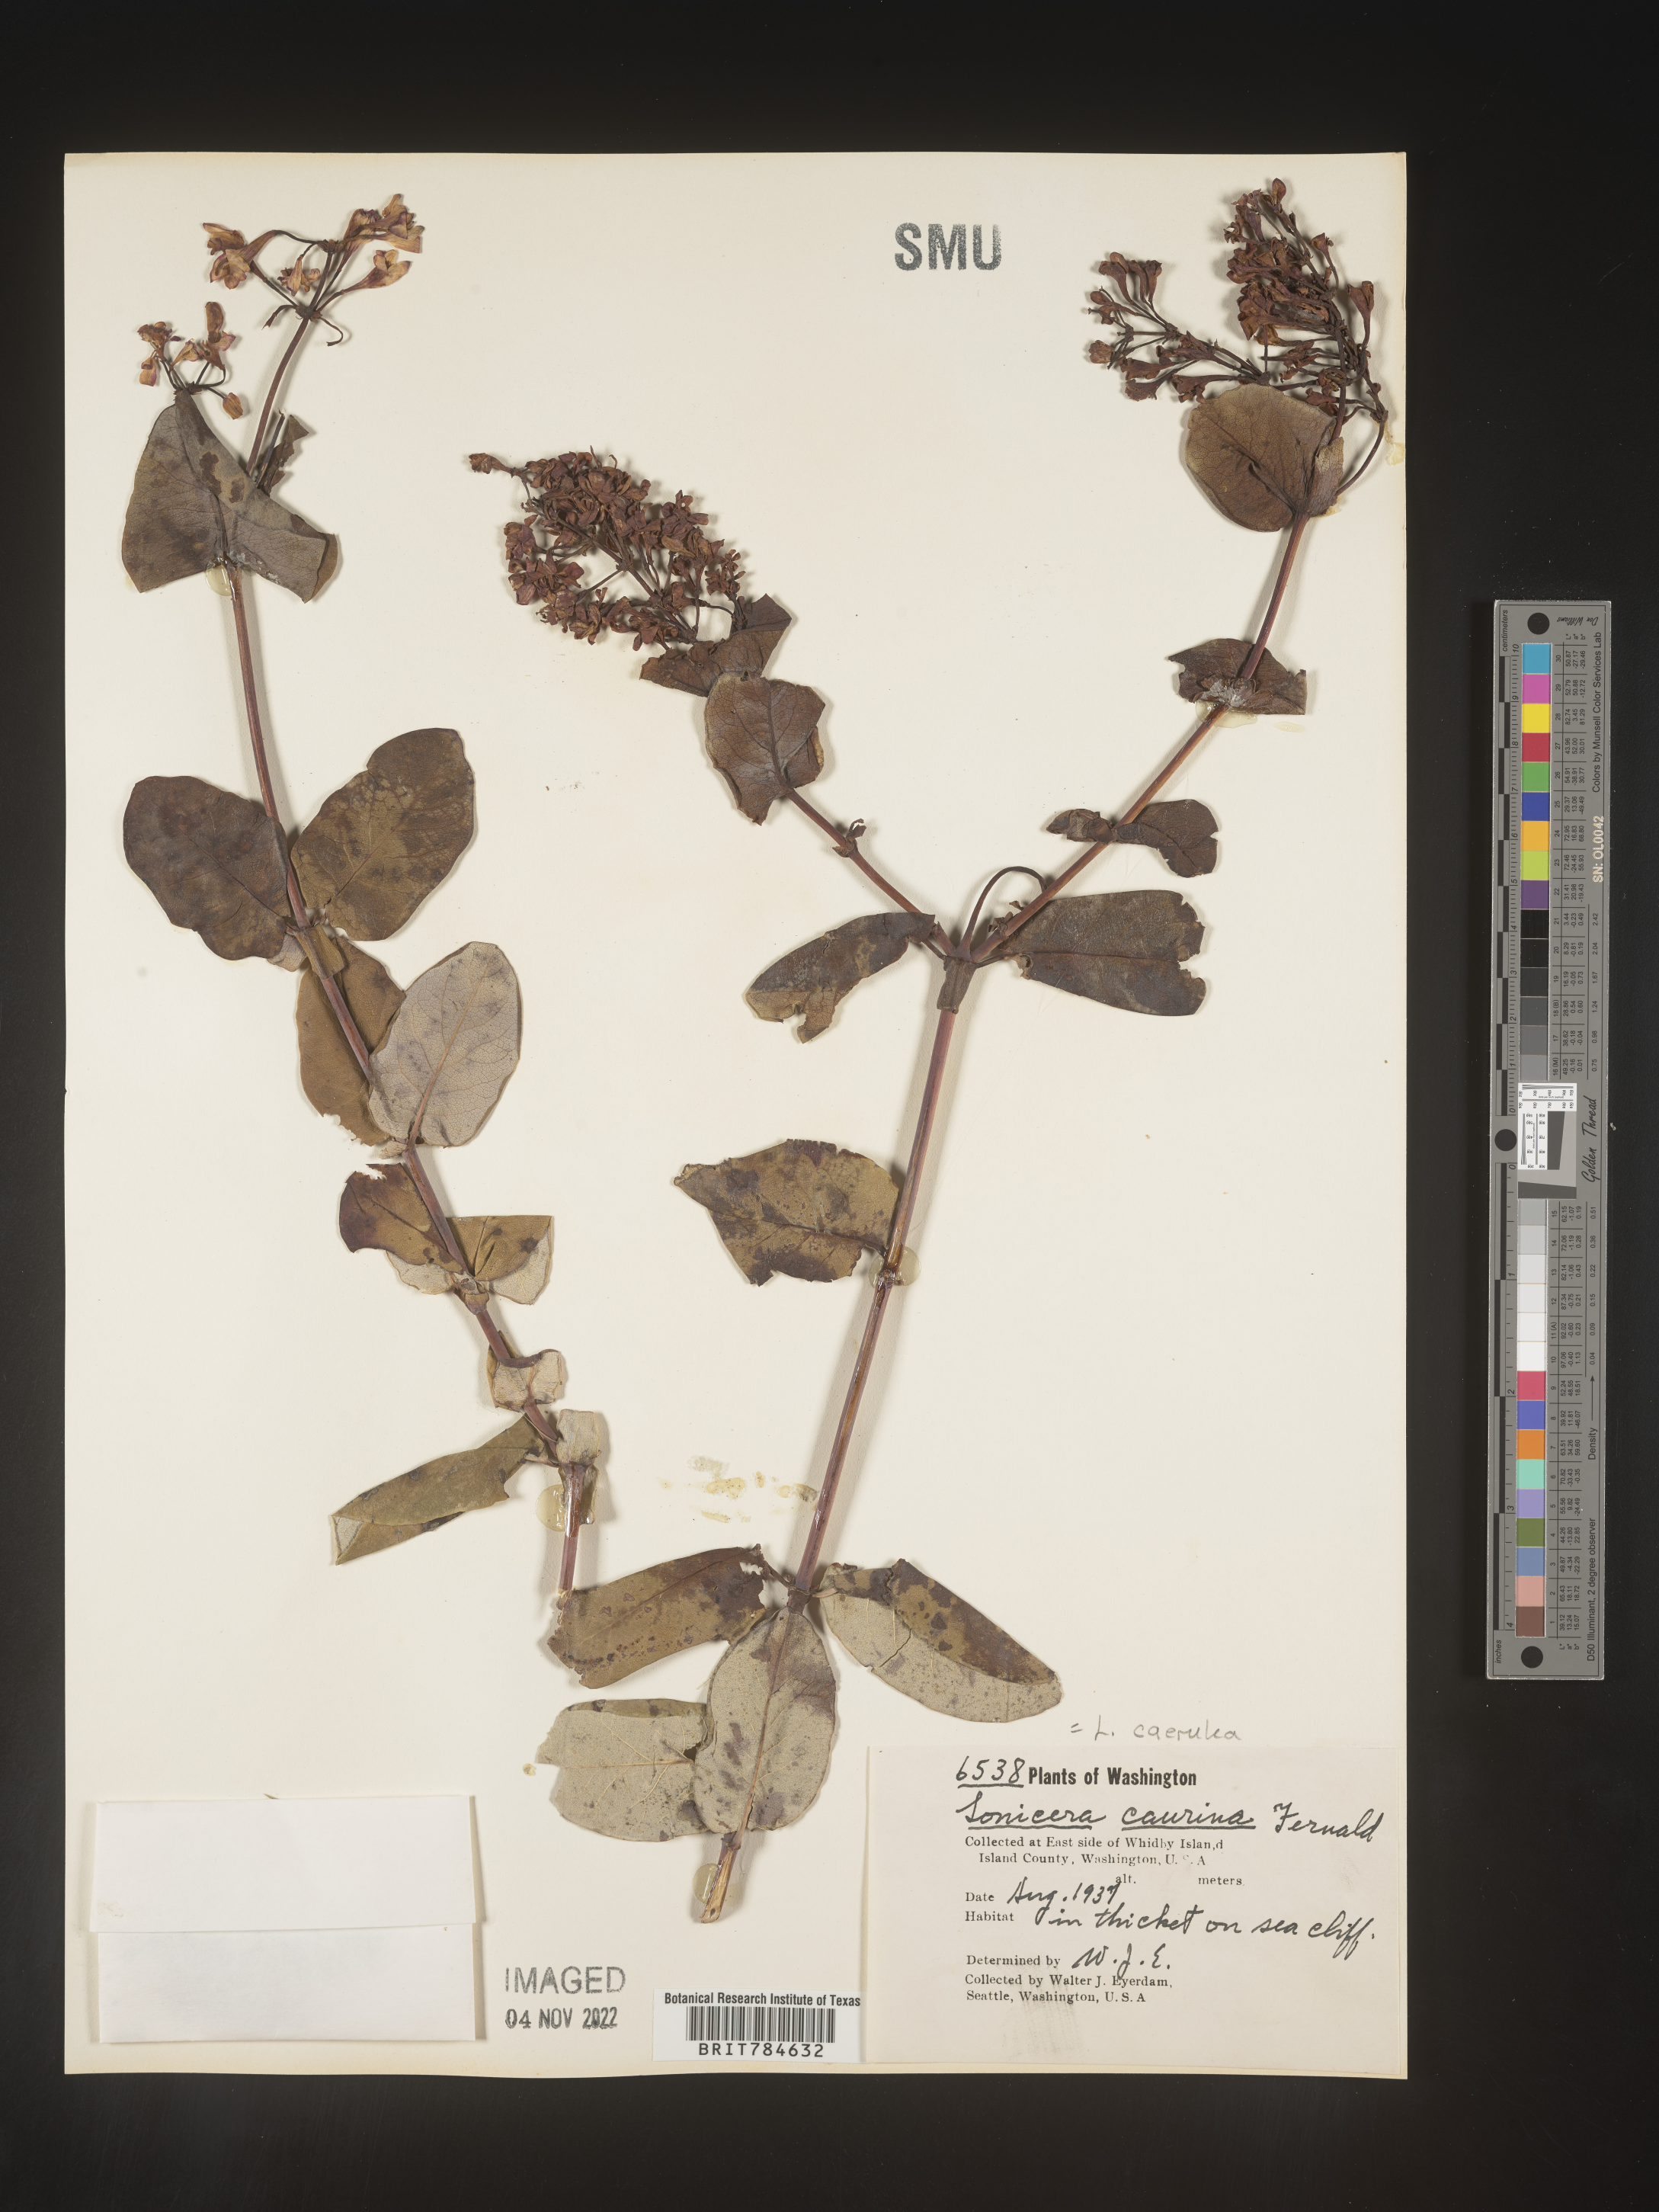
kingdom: Plantae
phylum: Tracheophyta
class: Magnoliopsida
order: Dipsacales
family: Caprifoliaceae
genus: Lonicera
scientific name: Lonicera
